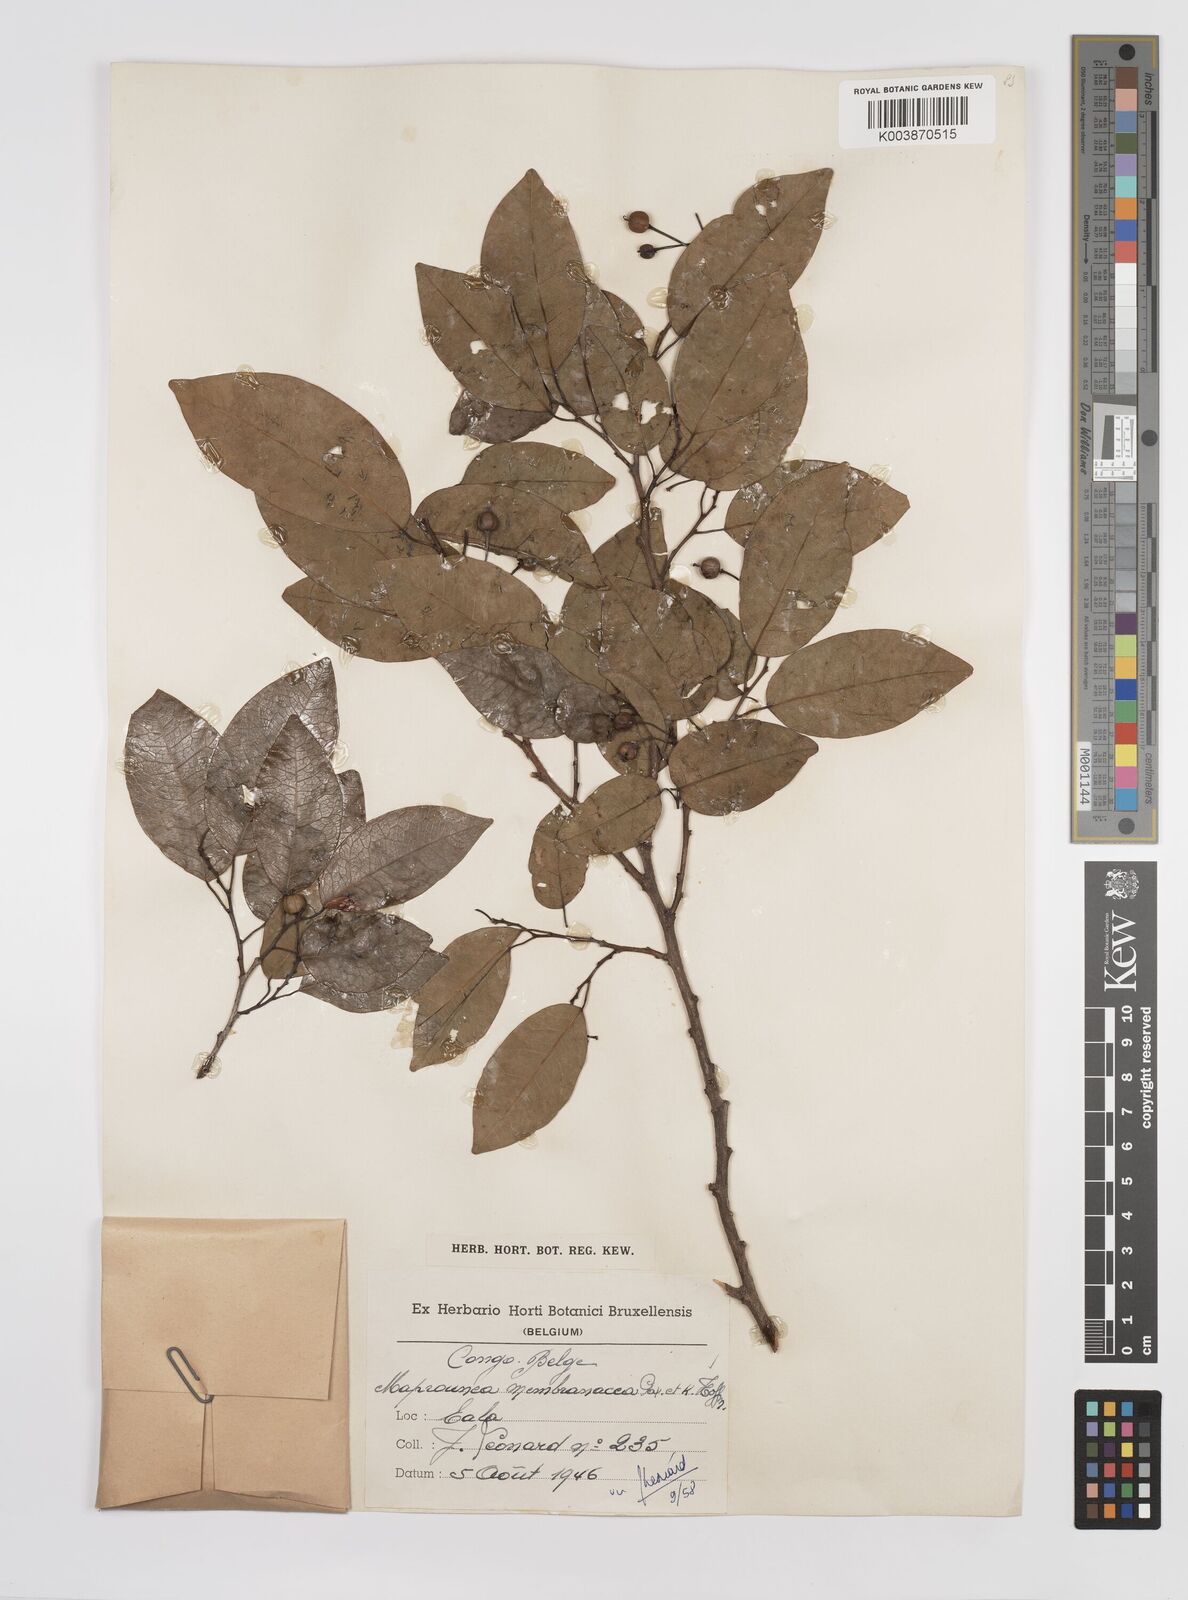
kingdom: Plantae
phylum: Tracheophyta
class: Magnoliopsida
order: Malpighiales
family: Euphorbiaceae
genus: Maprounea
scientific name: Maprounea membranacea
